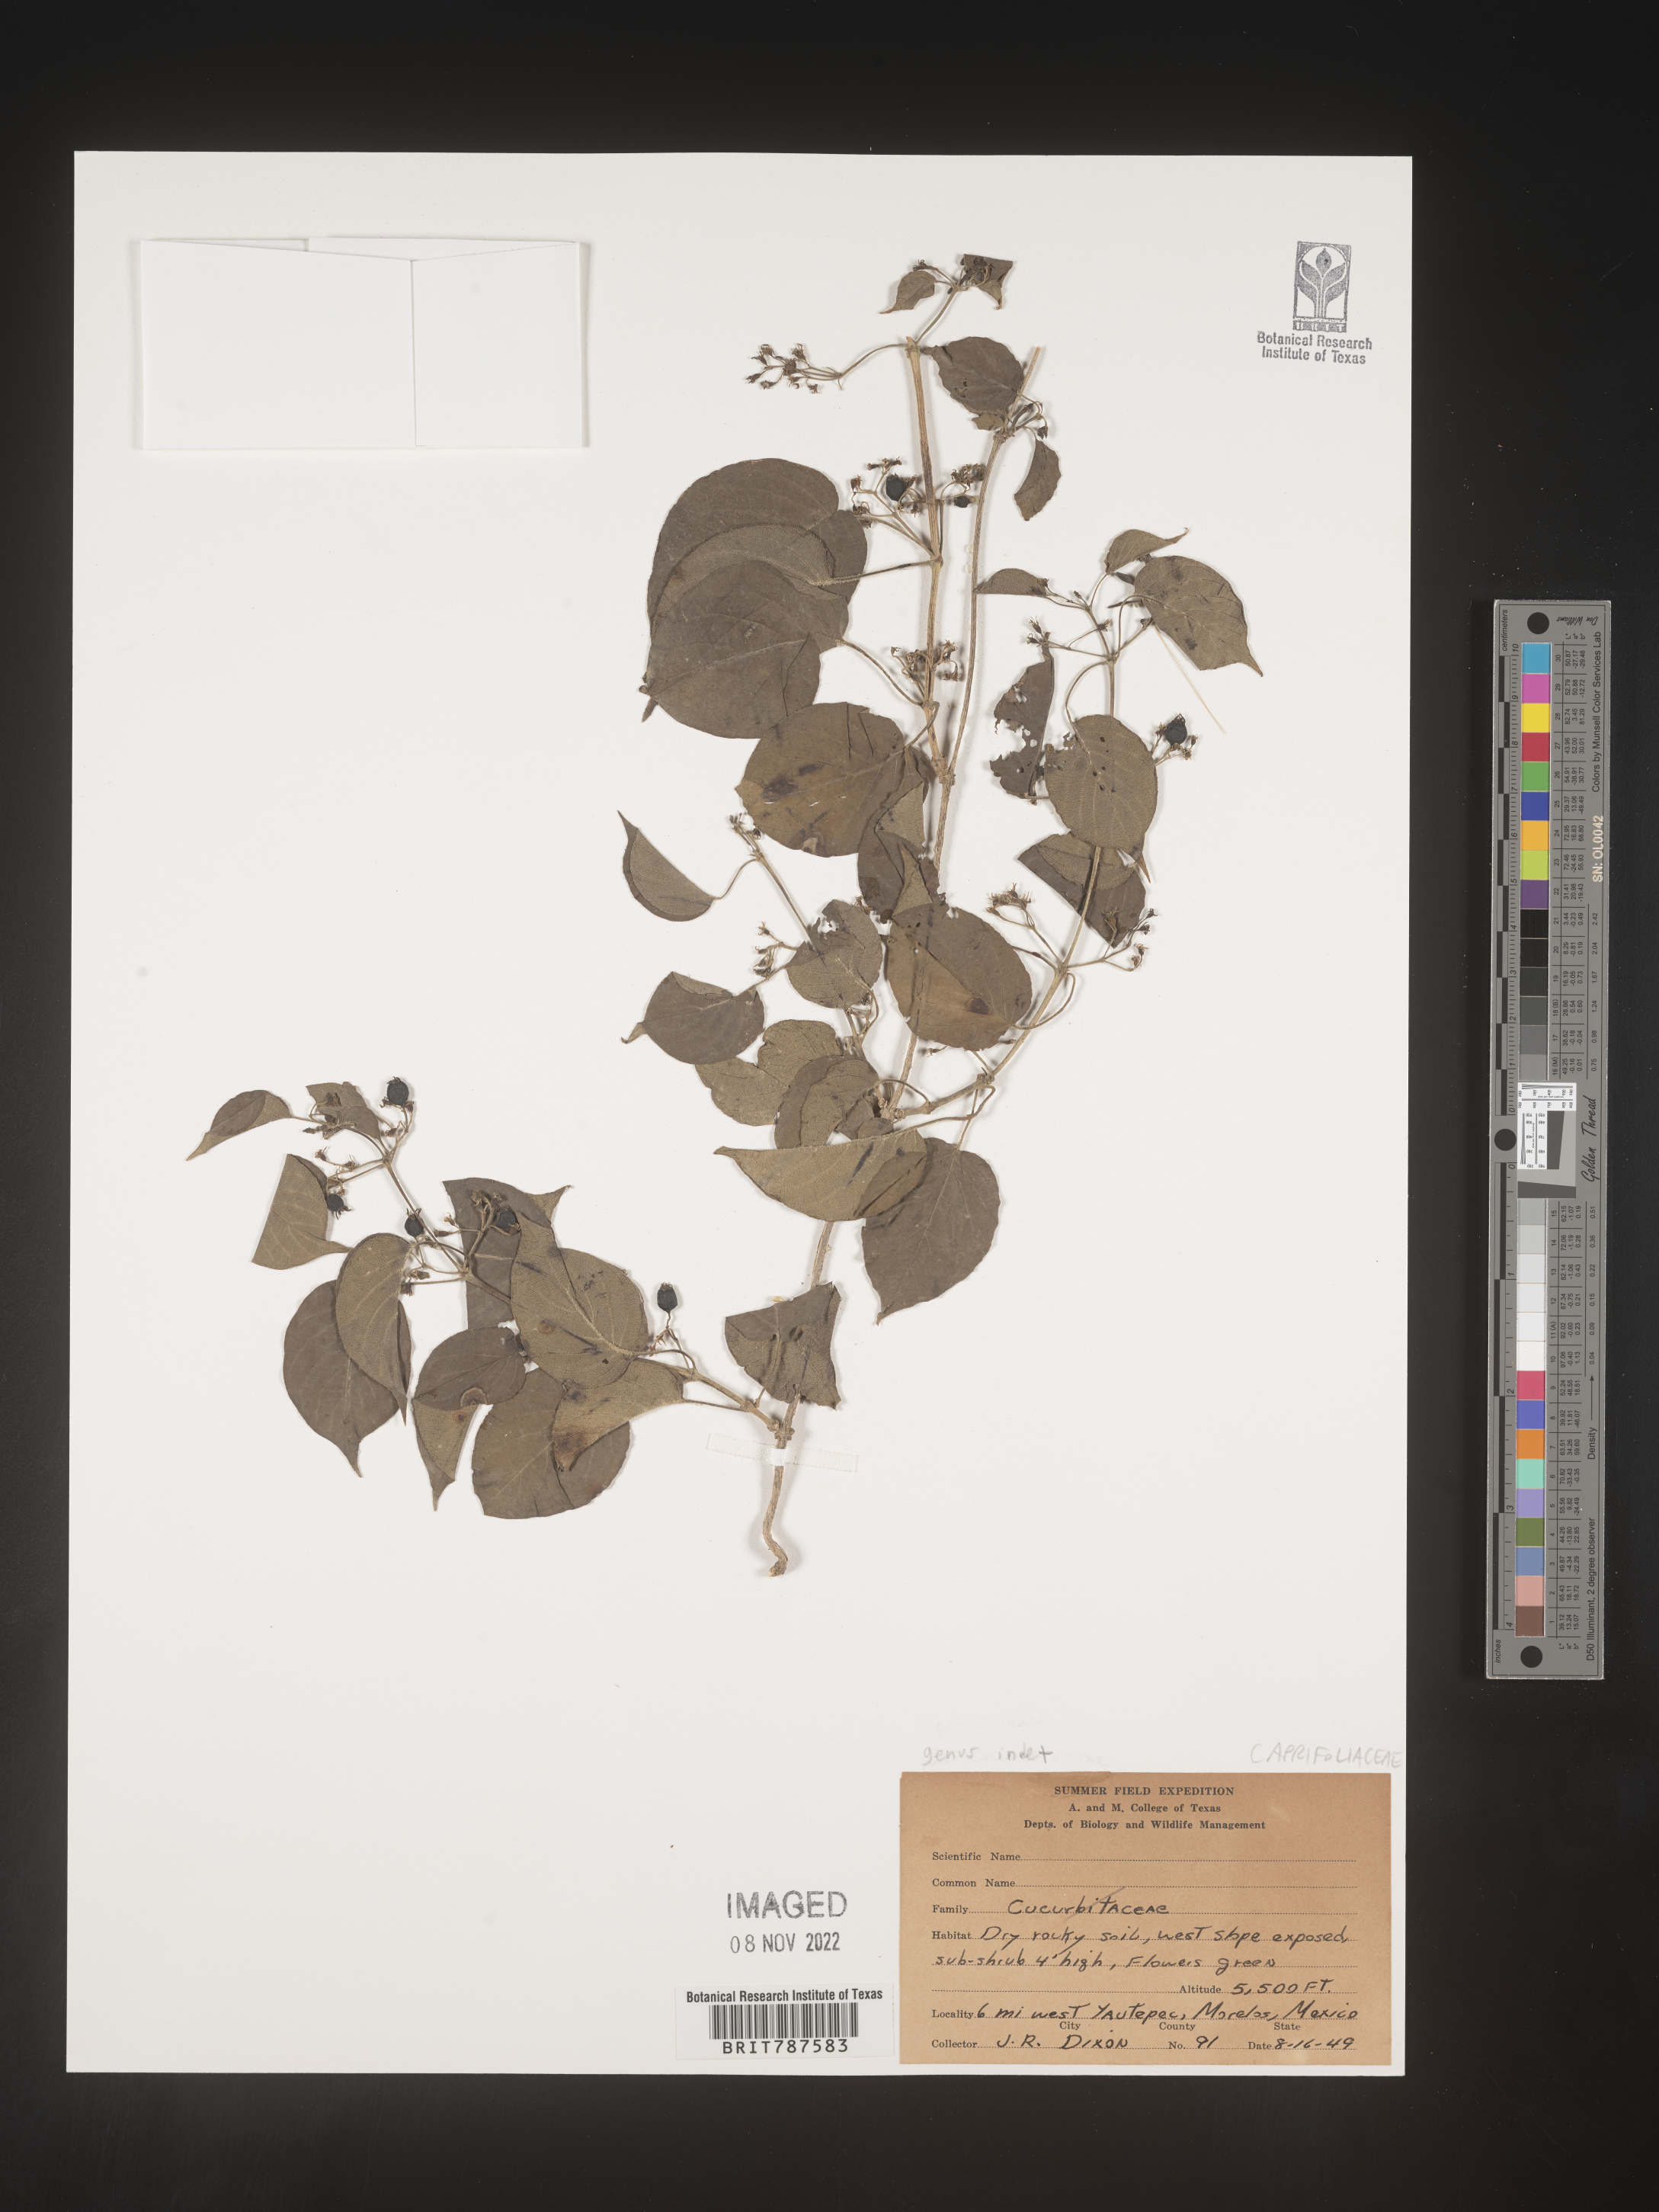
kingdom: Plantae
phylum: Tracheophyta
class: Magnoliopsida
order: Dipsacales
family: Caprifoliaceae
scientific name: Caprifoliaceae
